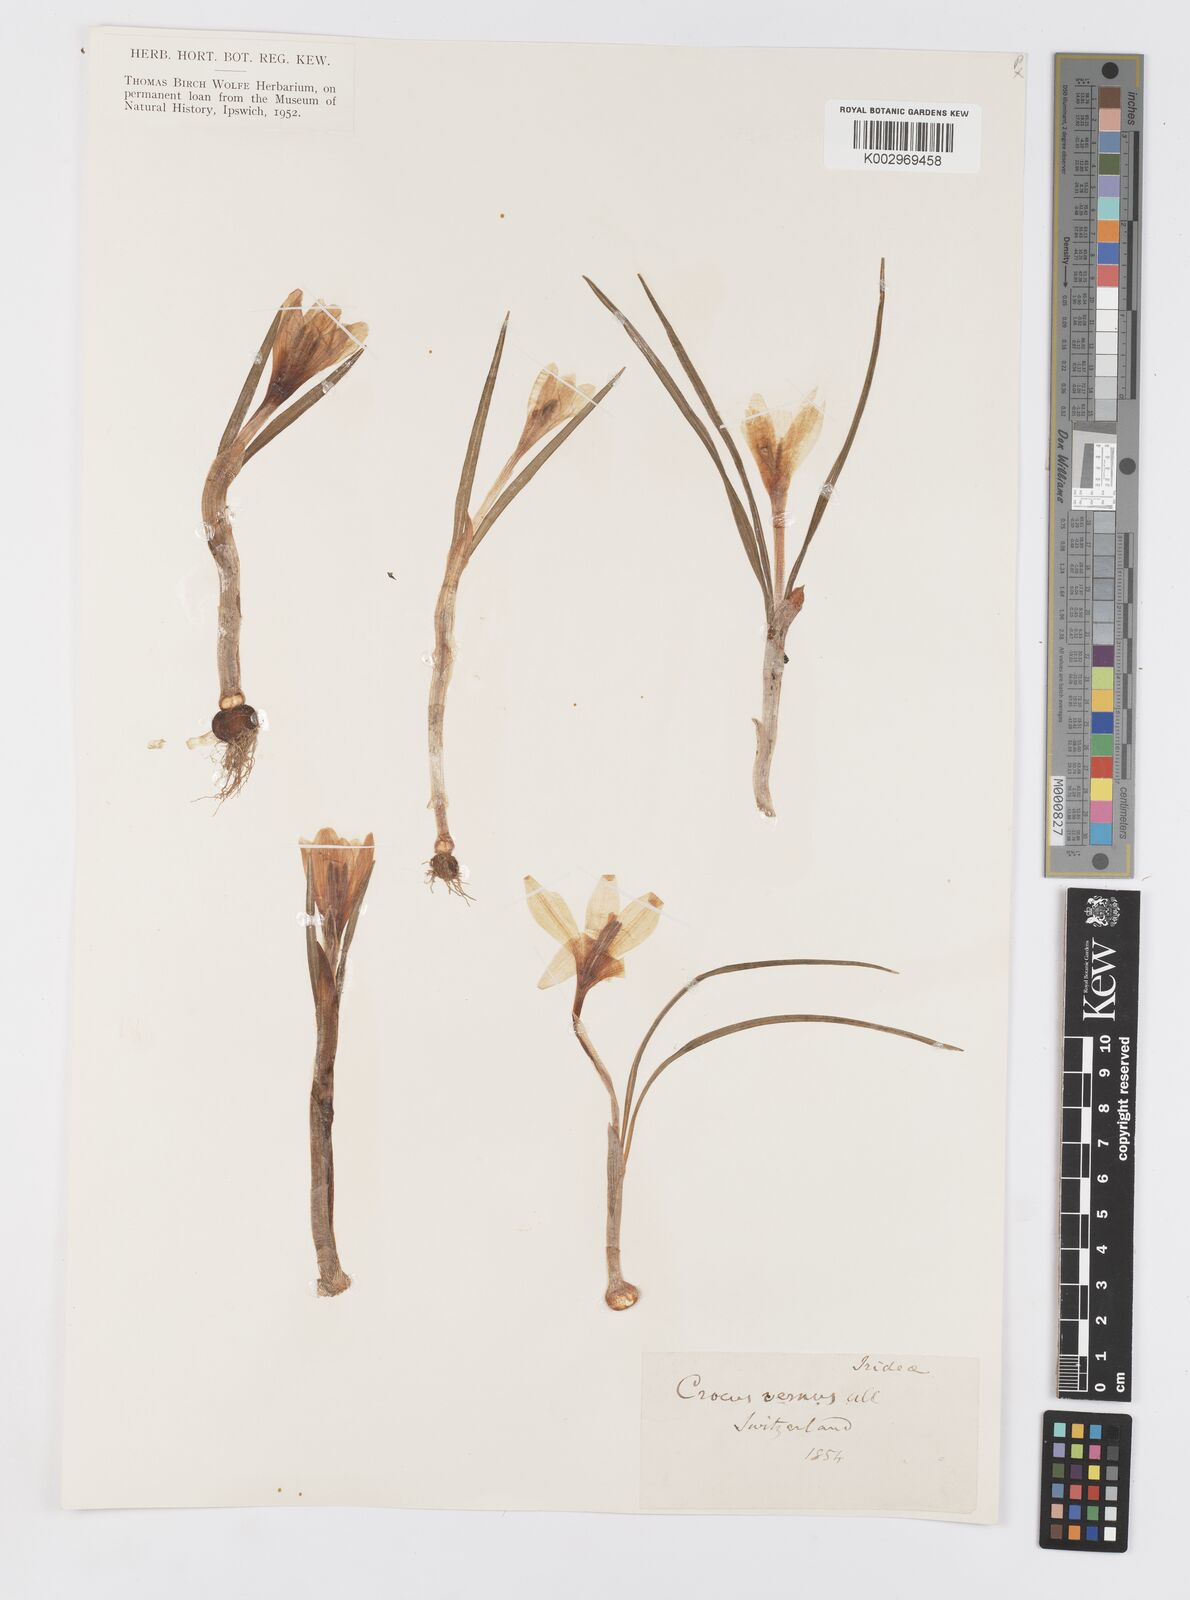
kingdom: Plantae
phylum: Tracheophyta
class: Liliopsida
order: Asparagales
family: Iridaceae
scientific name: Iridaceae
